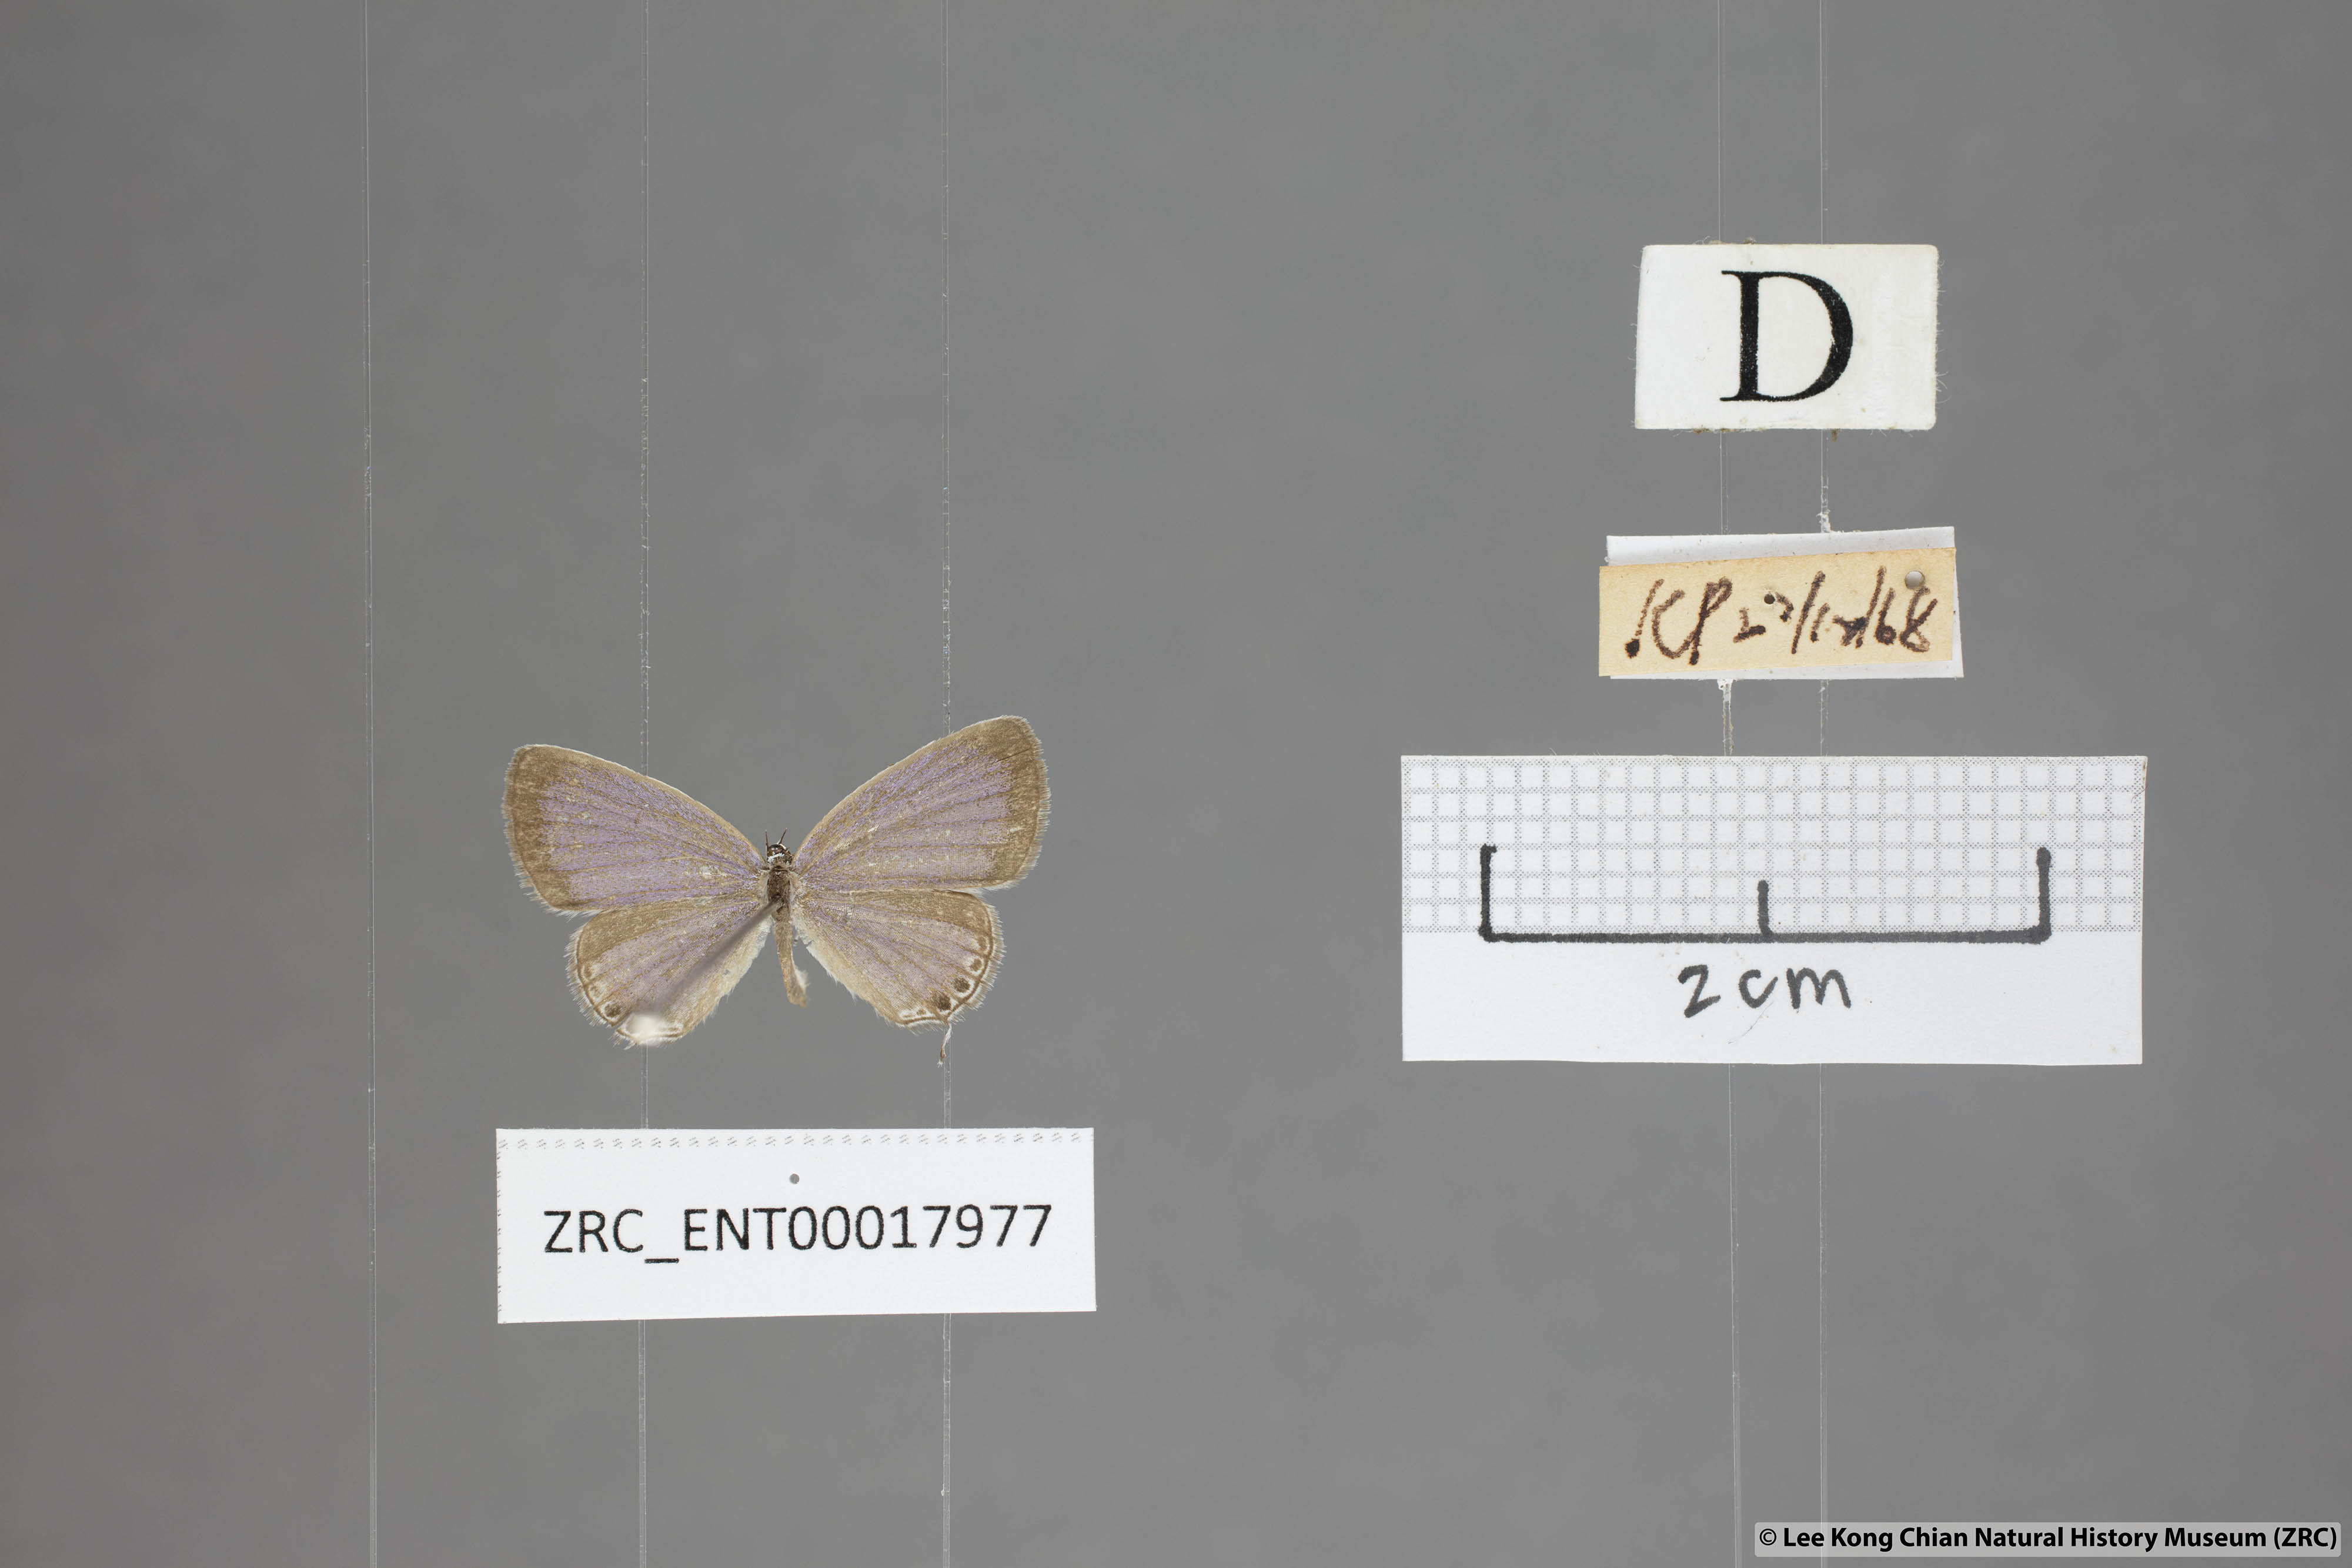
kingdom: Animalia
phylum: Arthropoda
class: Insecta
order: Lepidoptera
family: Lycaenidae
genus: Everes
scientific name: Everes lacturnus
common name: Orange-tipped pea-blue
